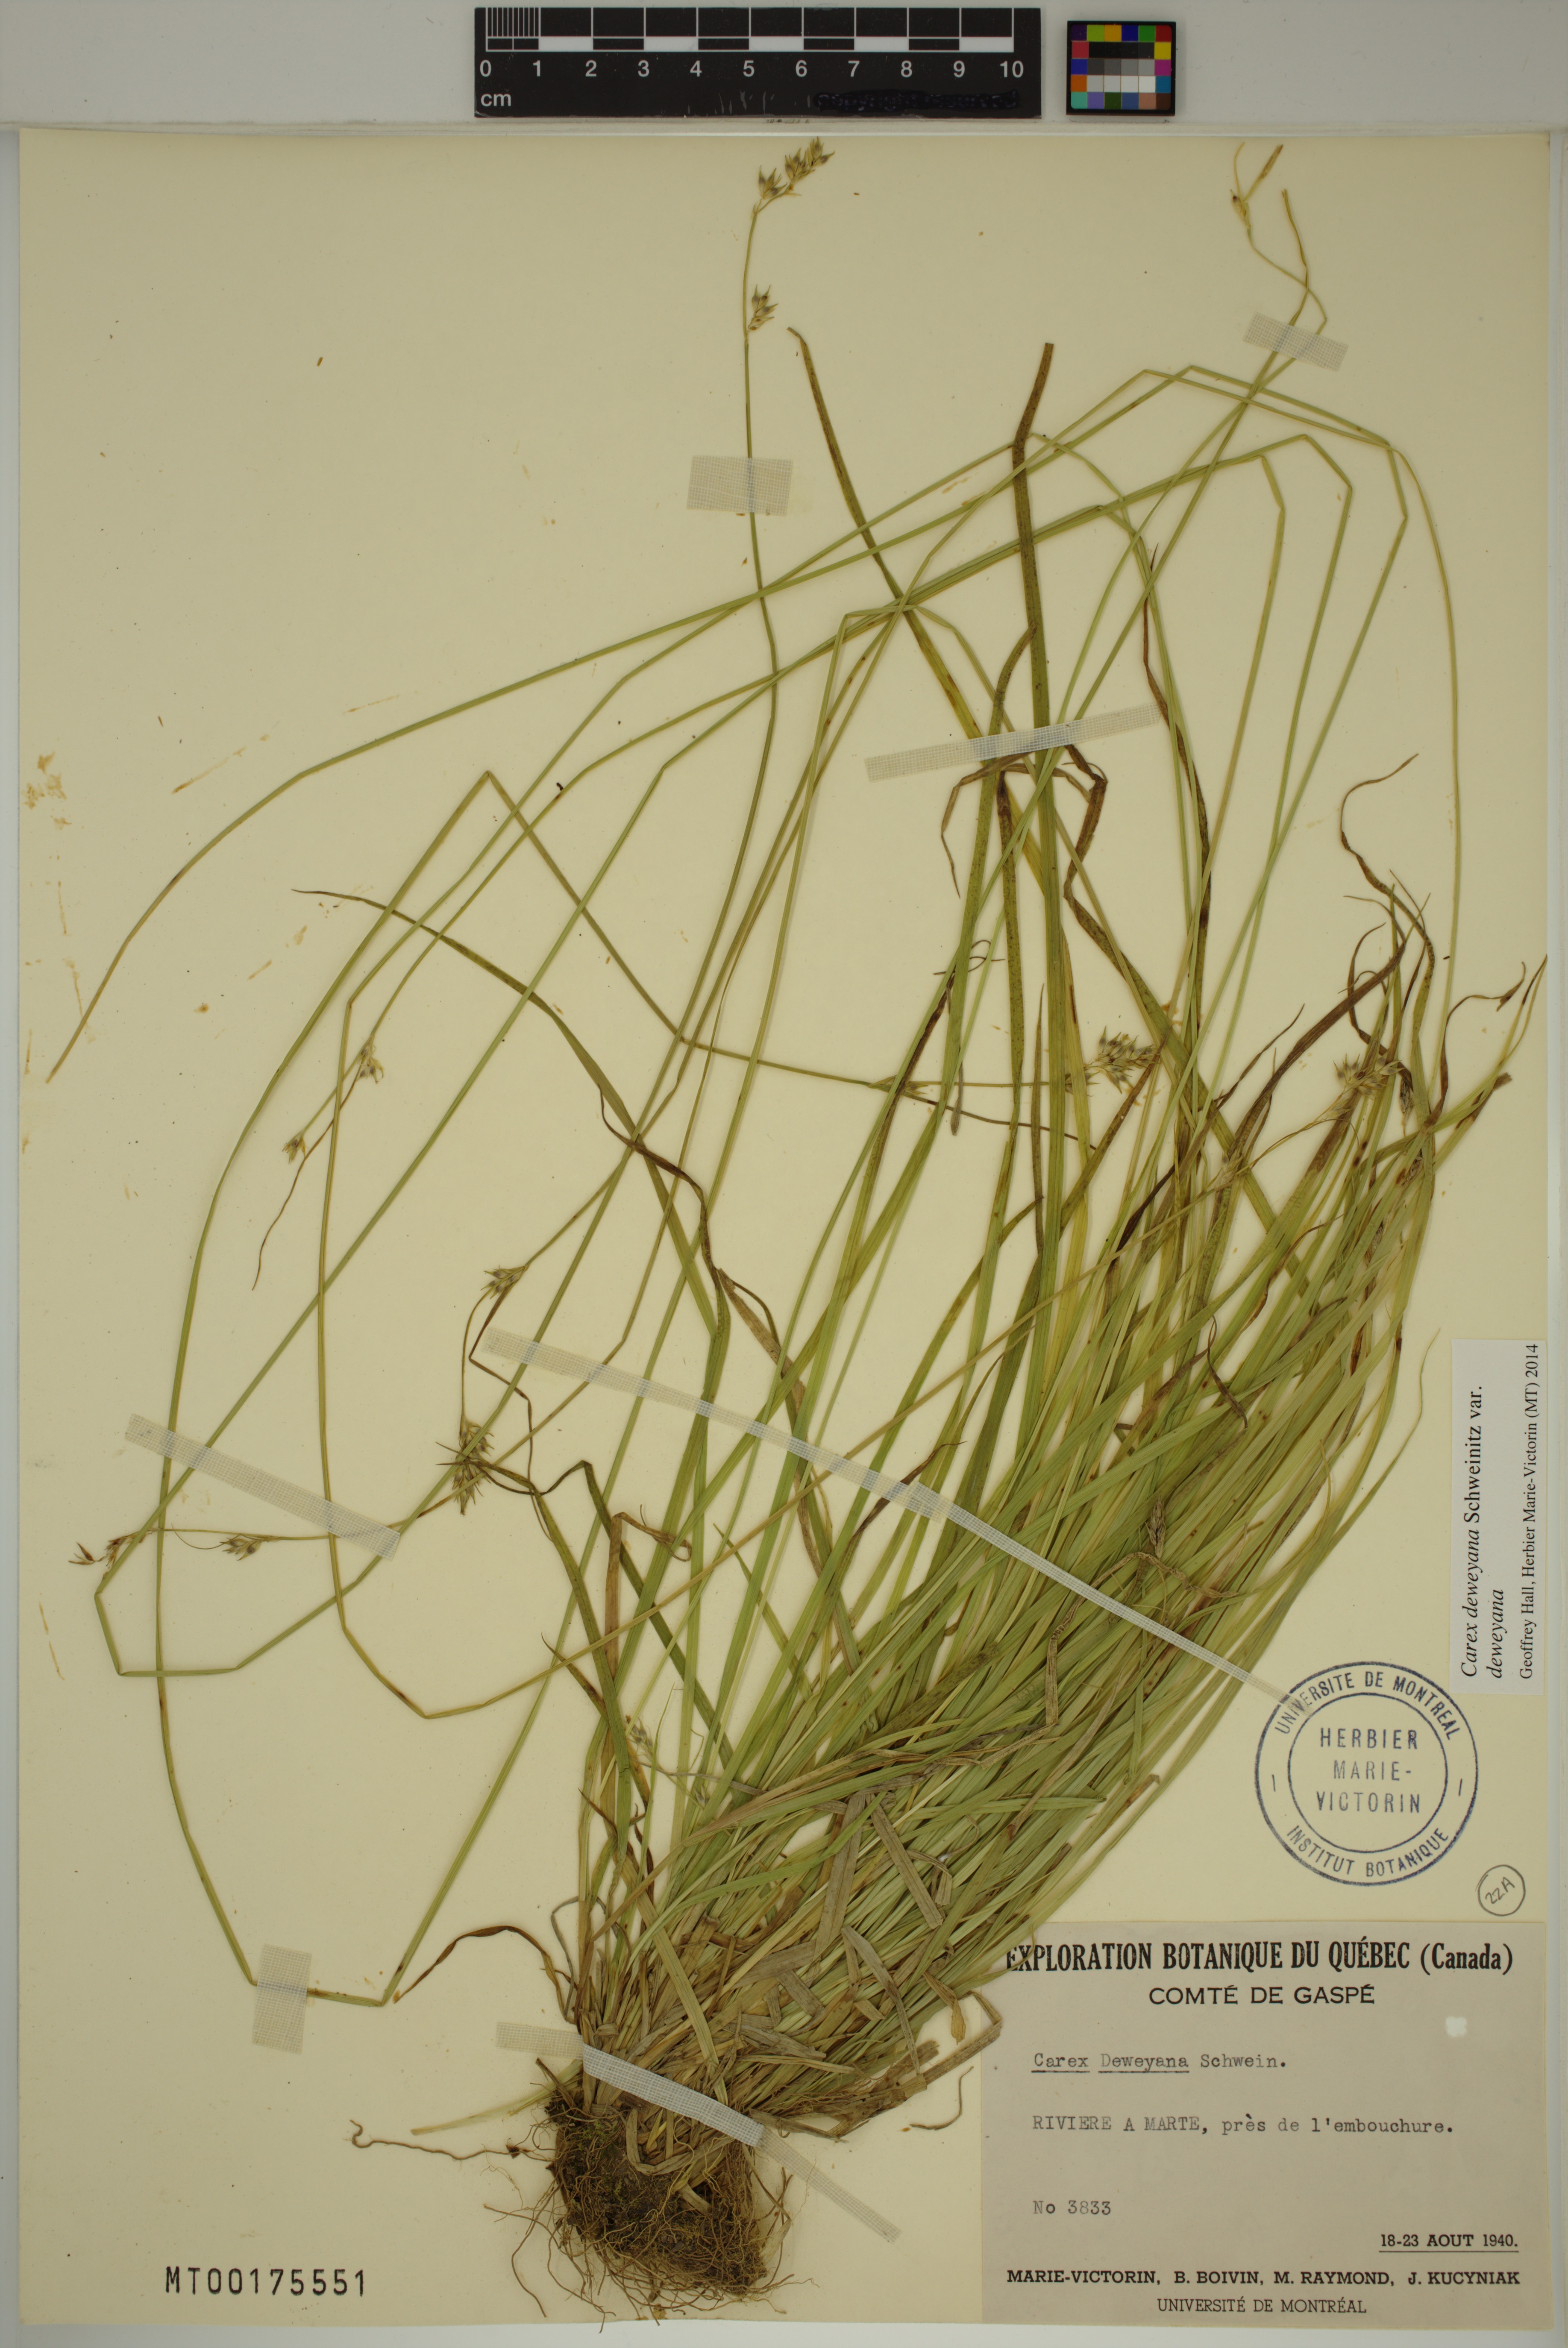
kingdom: Plantae
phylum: Tracheophyta
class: Liliopsida
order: Poales
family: Cyperaceae
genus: Carex
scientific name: Carex deweyana
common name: Dewey's sedge
